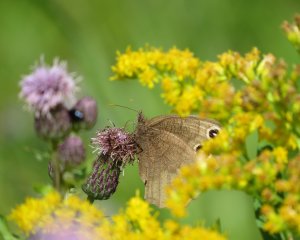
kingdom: Animalia
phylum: Arthropoda
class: Insecta
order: Lepidoptera
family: Nymphalidae
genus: Cercyonis
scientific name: Cercyonis pegala
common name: Common Wood-Nymph
